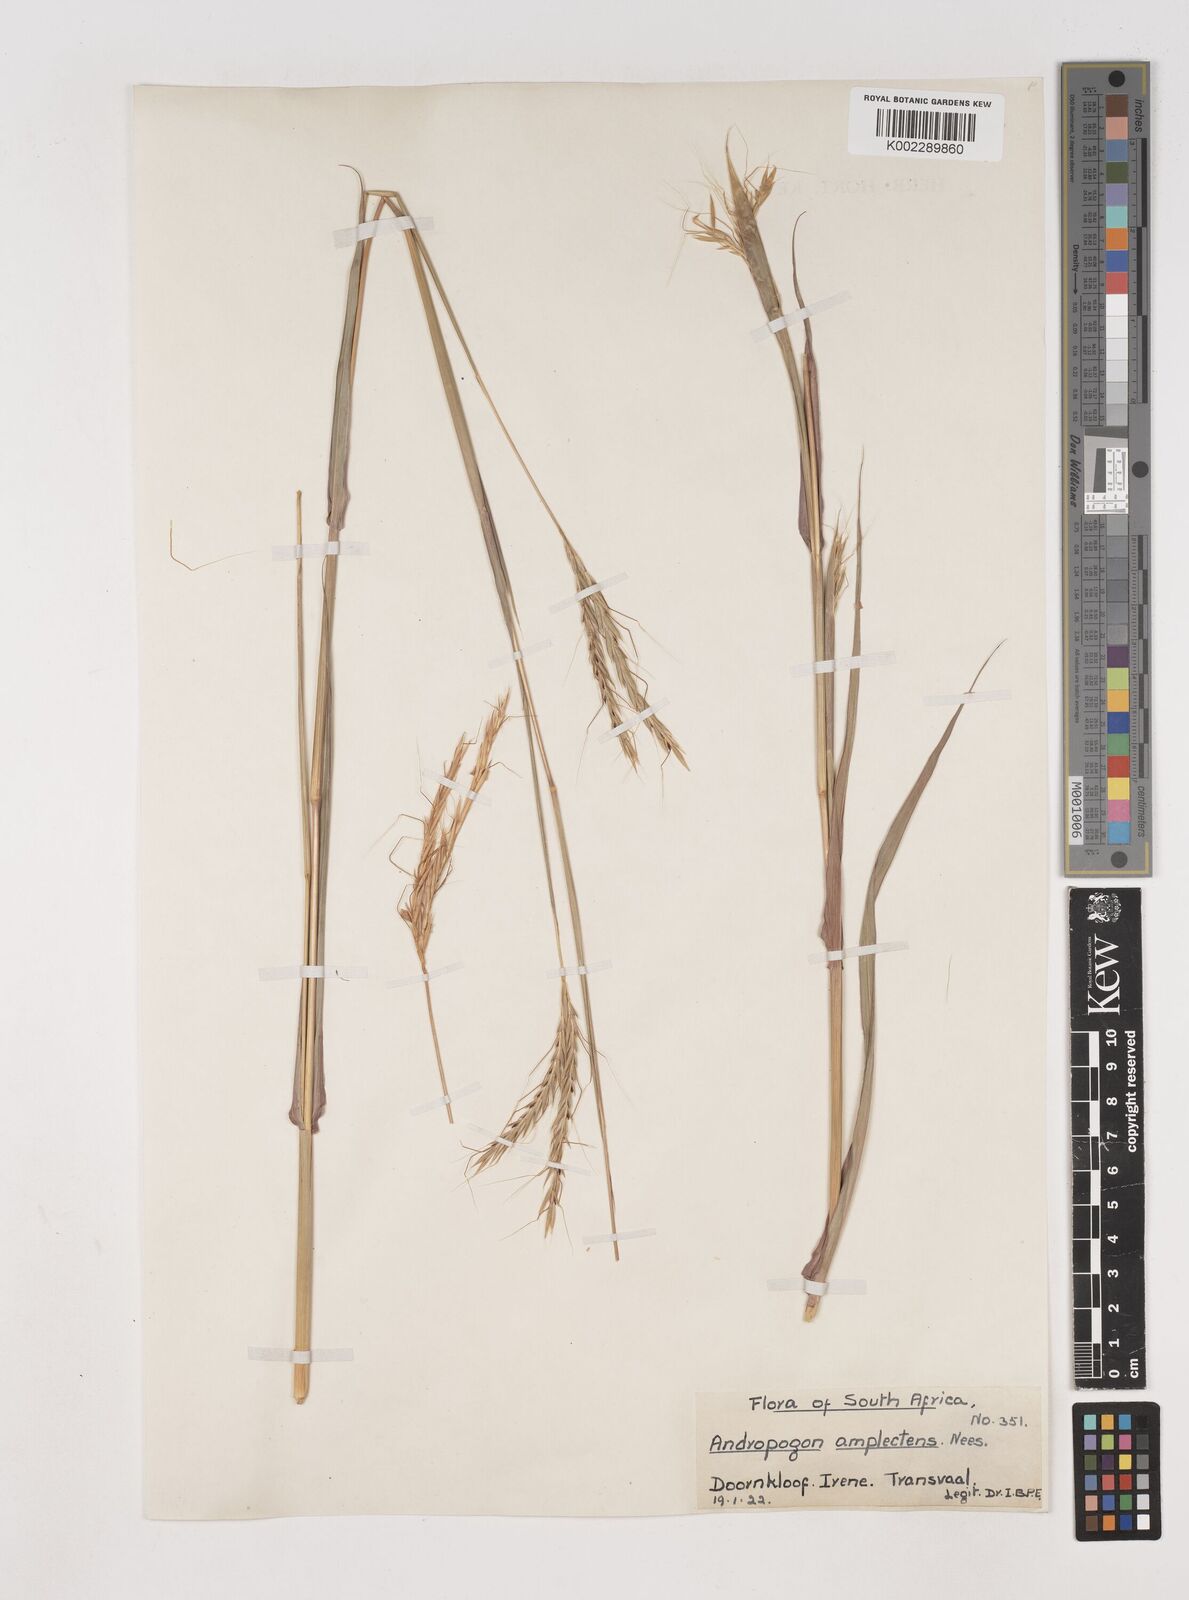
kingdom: Plantae
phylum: Tracheophyta
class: Liliopsida
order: Poales
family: Poaceae
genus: Diheteropogon
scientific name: Diheteropogon amplectens
